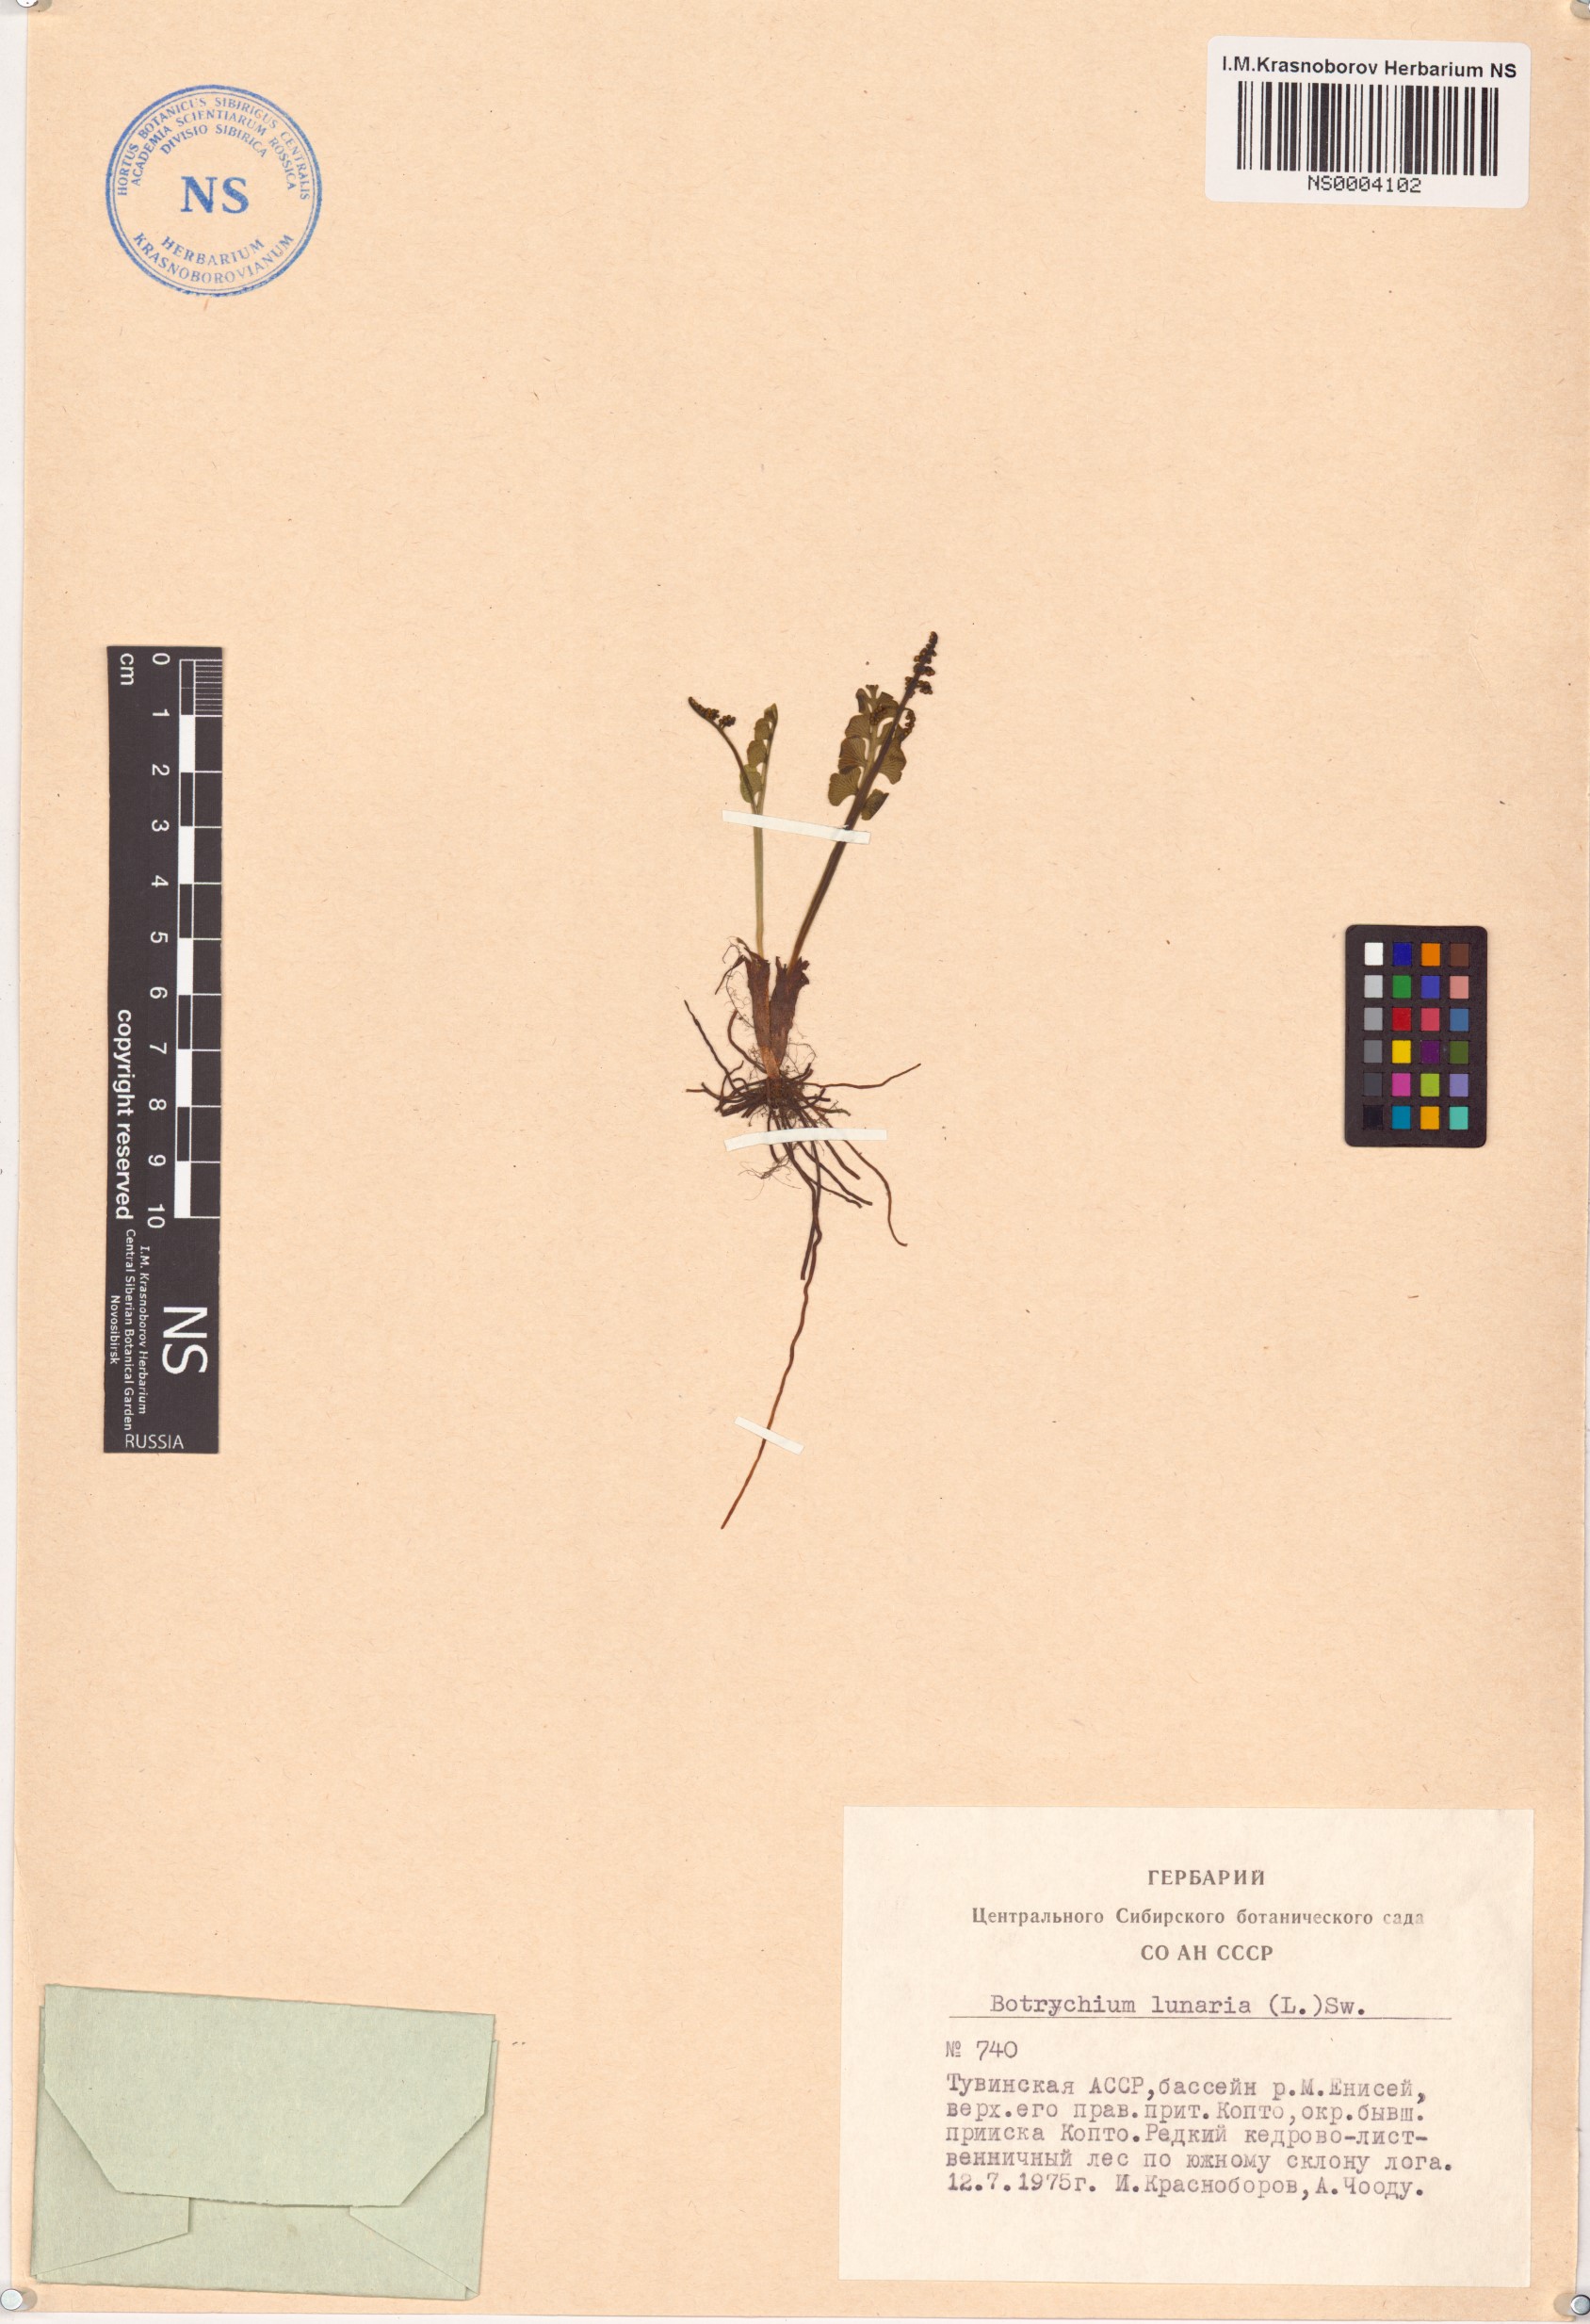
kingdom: Plantae
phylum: Tracheophyta
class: Polypodiopsida
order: Ophioglossales
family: Ophioglossaceae
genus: Botrychium
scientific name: Botrychium lunaria
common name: Moonwort
